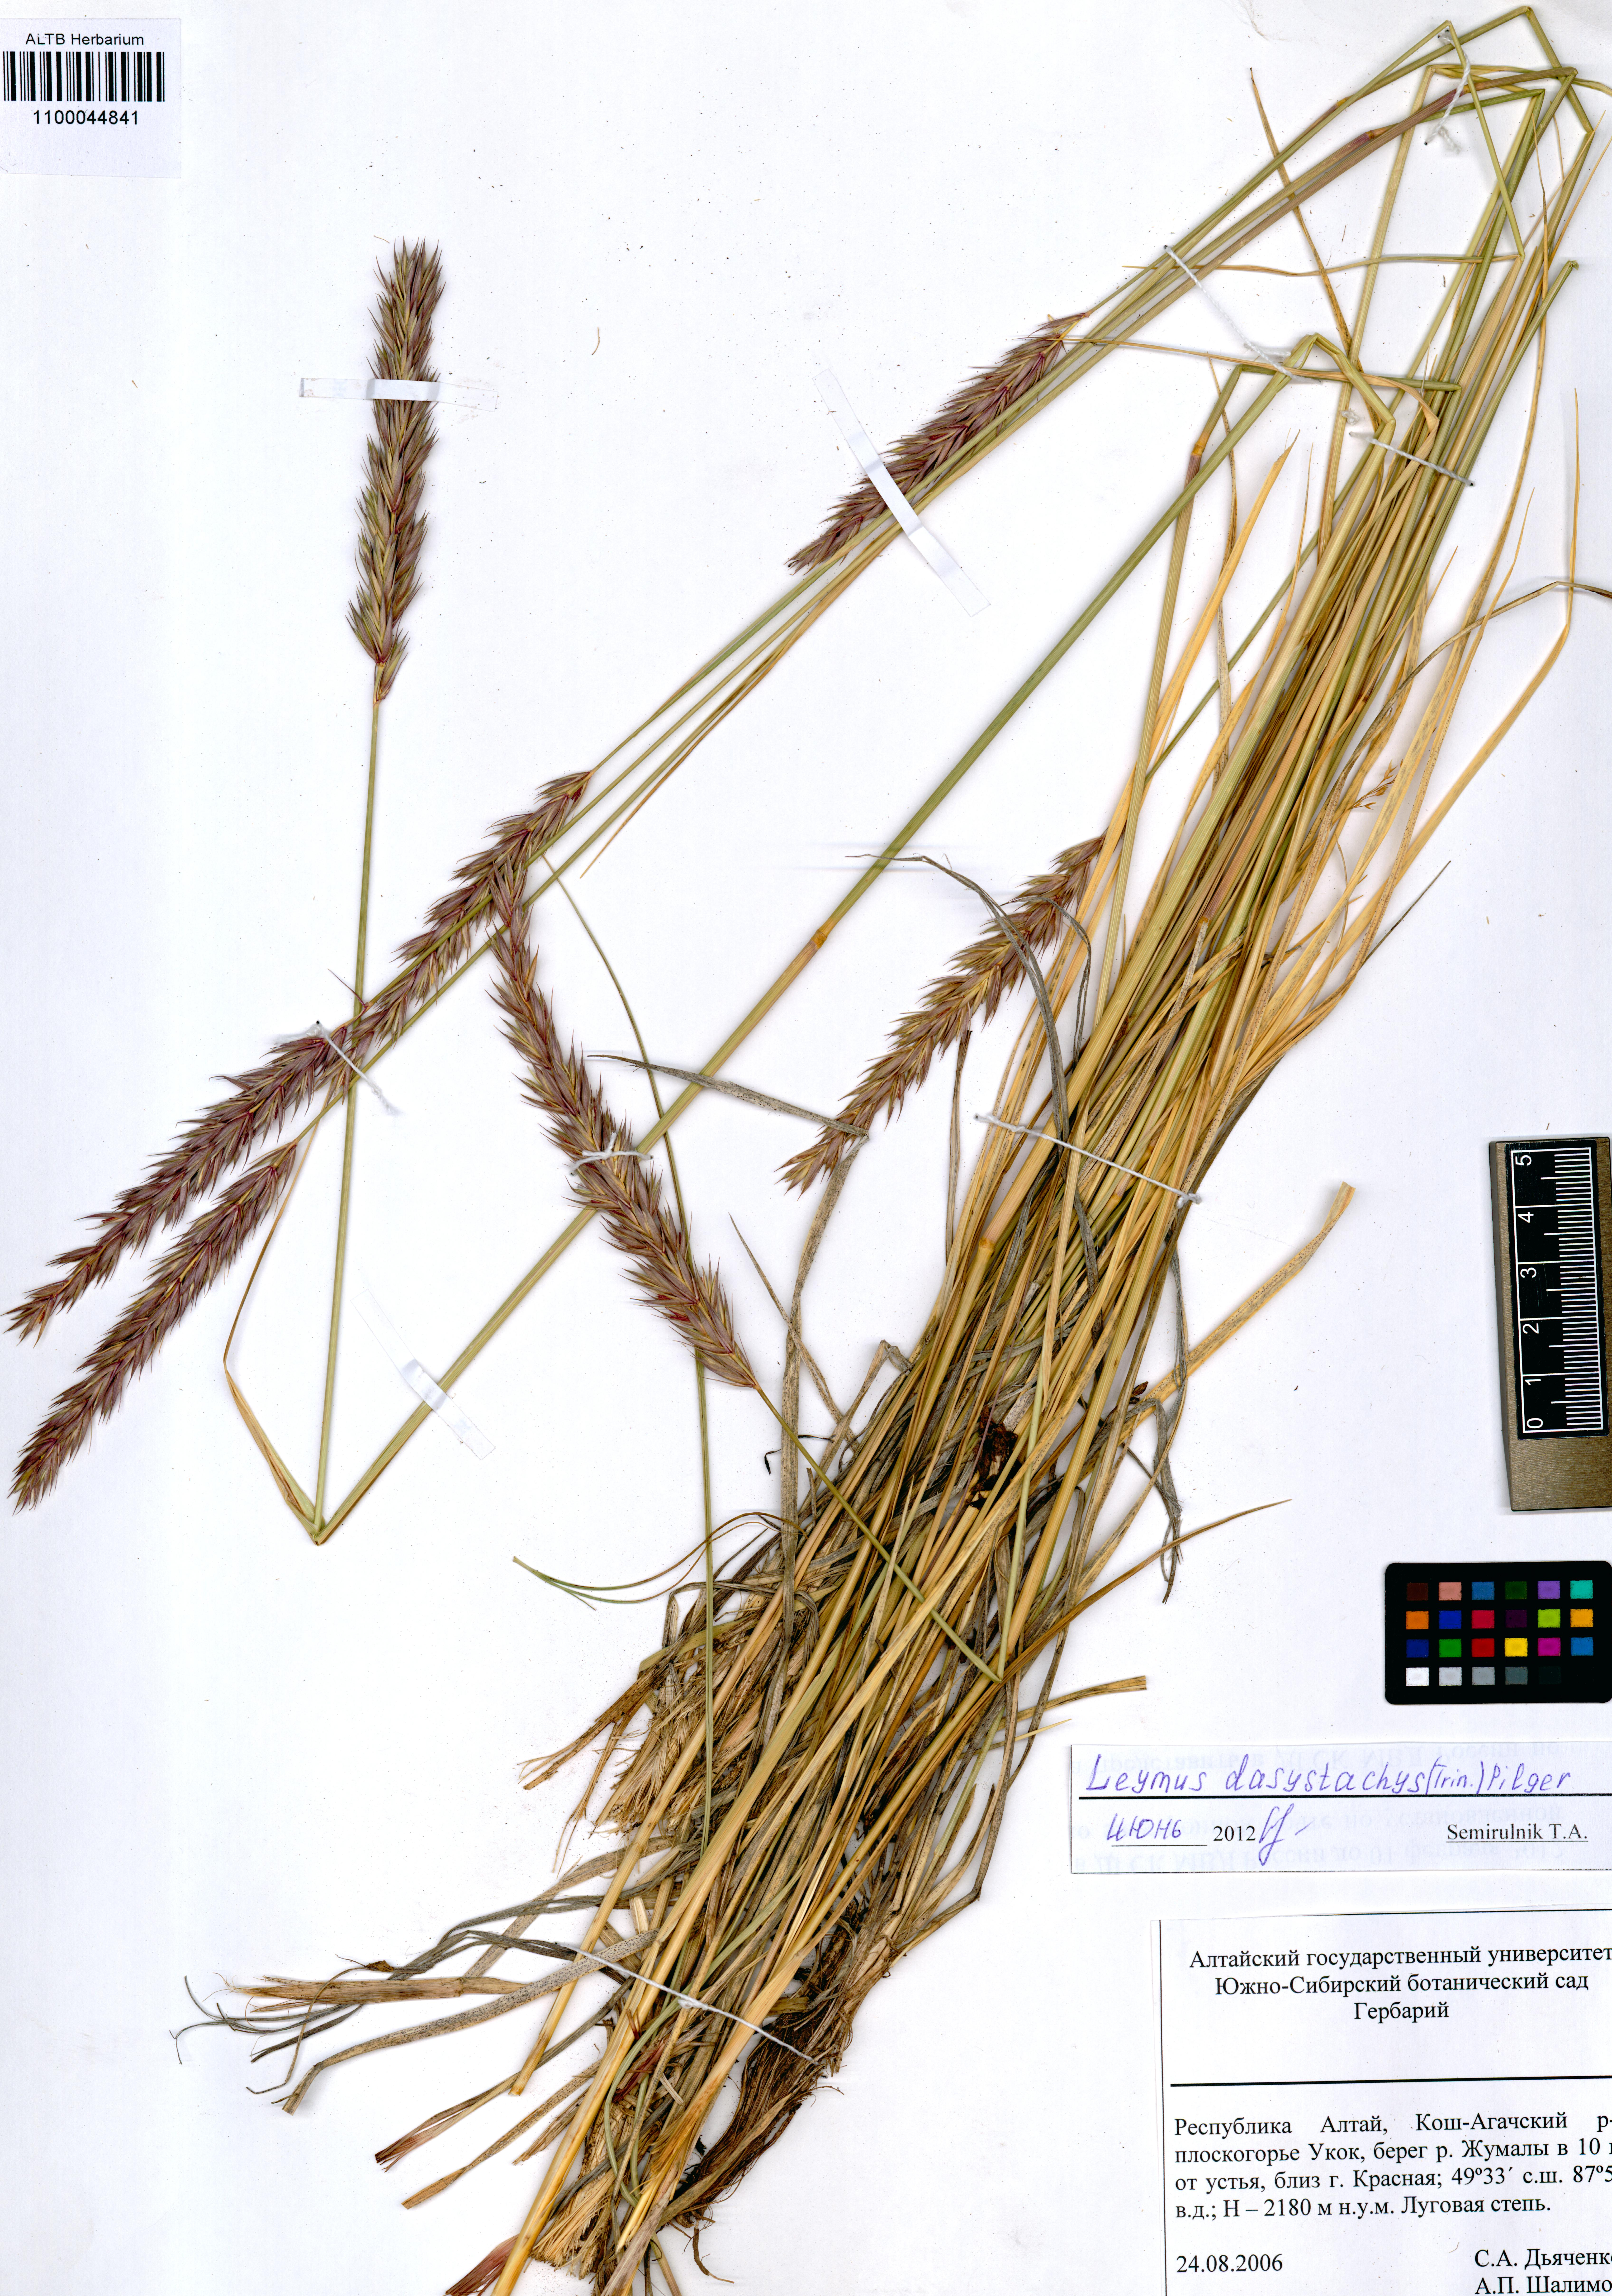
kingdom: Plantae
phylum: Tracheophyta
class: Liliopsida
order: Poales
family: Poaceae
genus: Leymus
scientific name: Leymus secalinus
